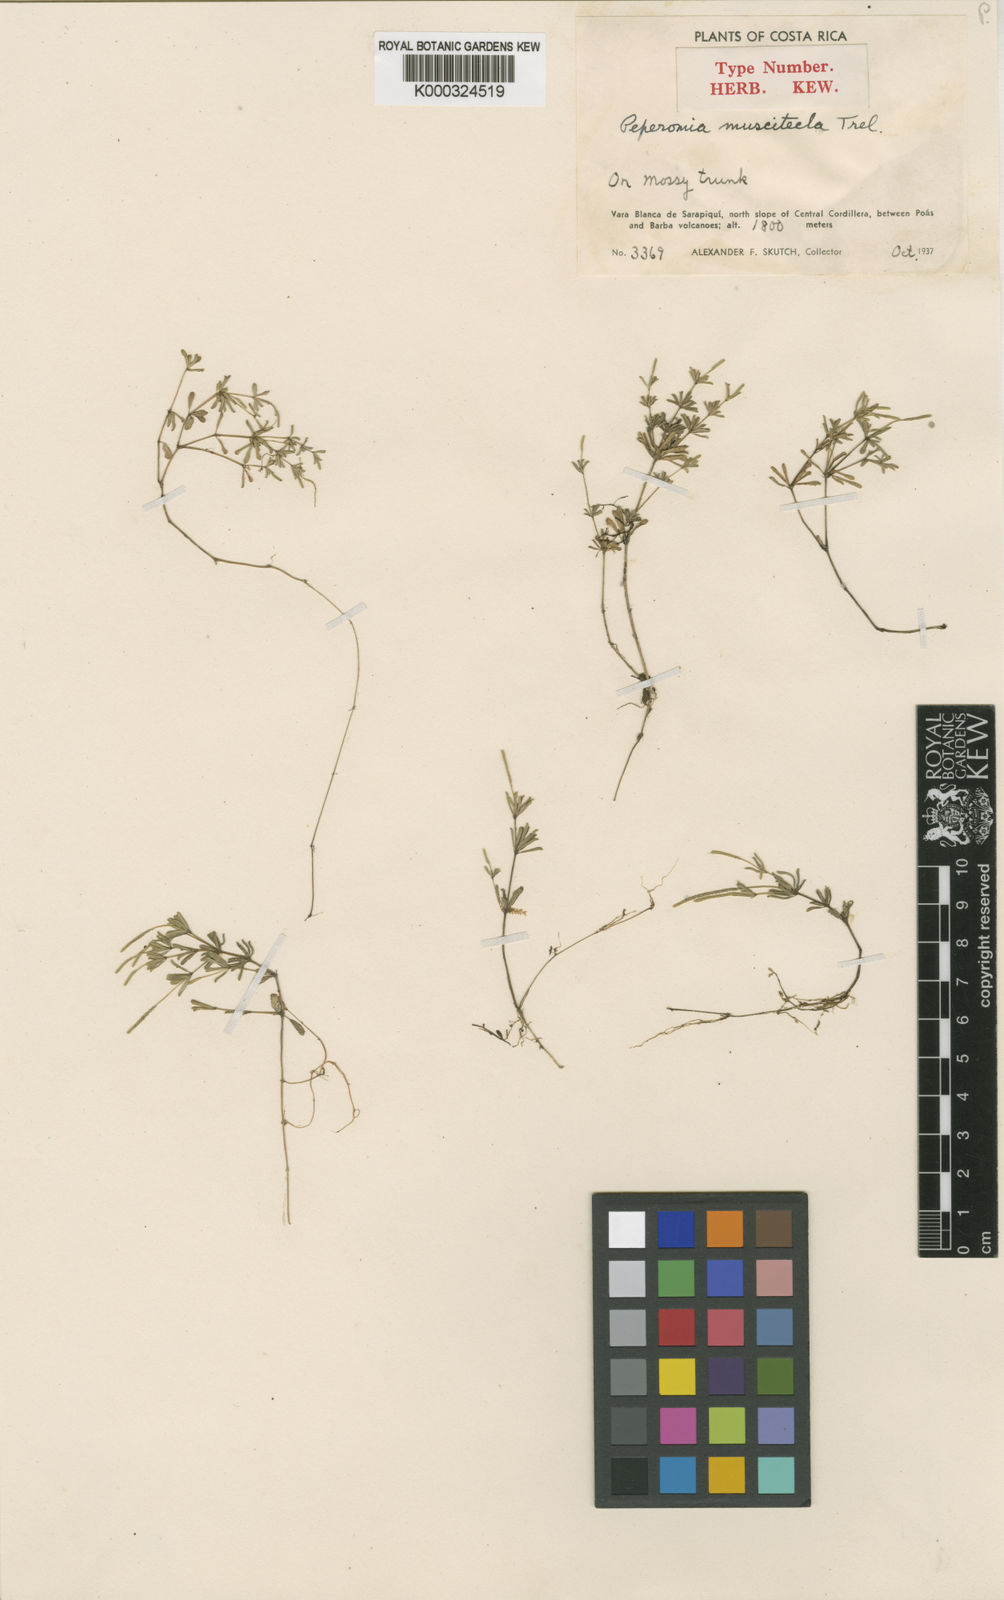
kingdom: Plantae
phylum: Tracheophyta
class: Magnoliopsida
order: Piperales
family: Piperaceae
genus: Peperomia
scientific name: Peperomia
